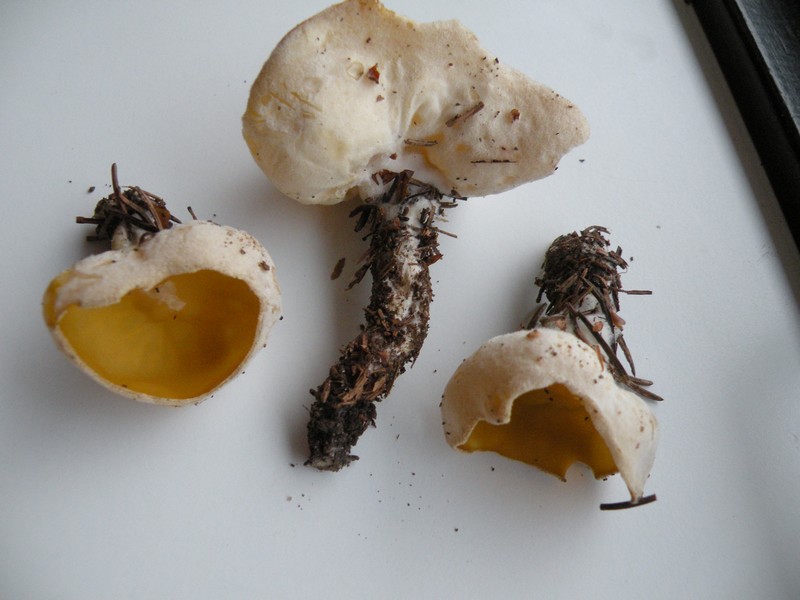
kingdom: Fungi
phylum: Ascomycota
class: Pezizomycetes
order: Pezizales
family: Pyronemataceae
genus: Sowerbyella
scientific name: Sowerbyella radiculata
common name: grøngul rodbæger
